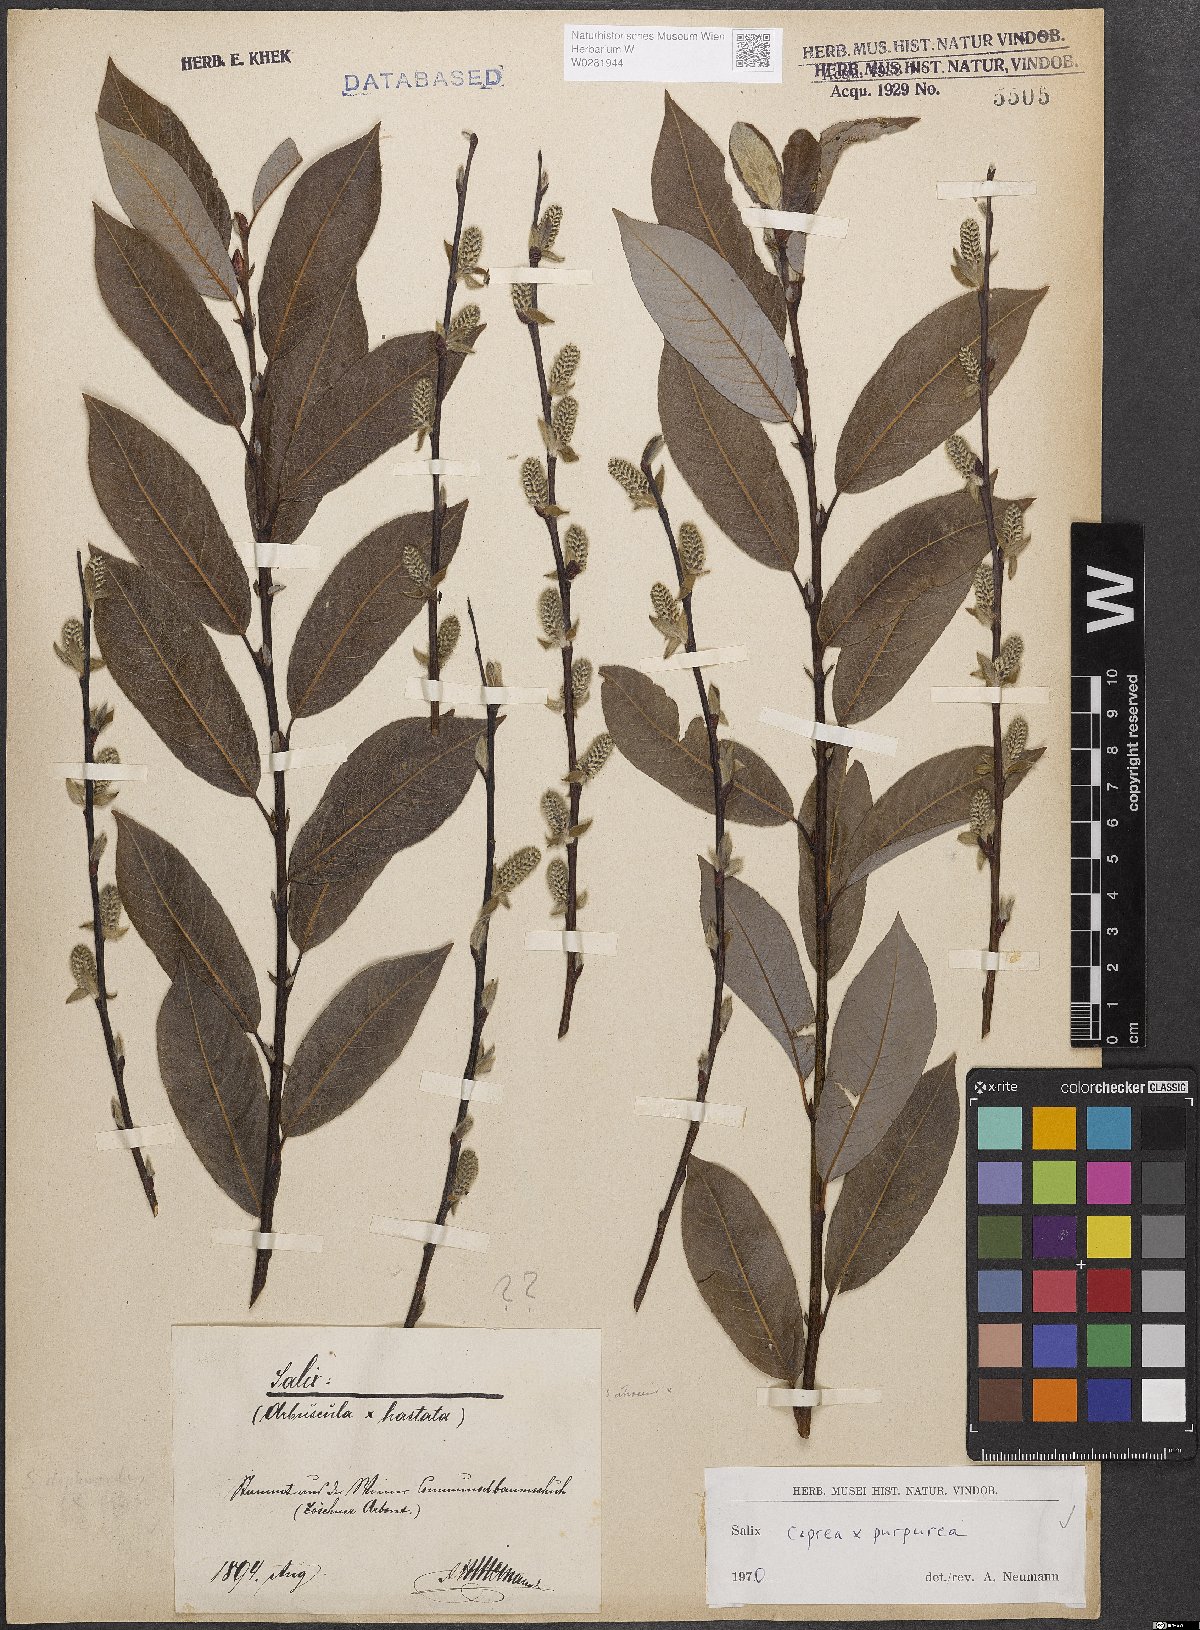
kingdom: Plantae
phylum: Tracheophyta
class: Magnoliopsida
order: Malpighiales
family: Salicaceae
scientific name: Salicaceae
